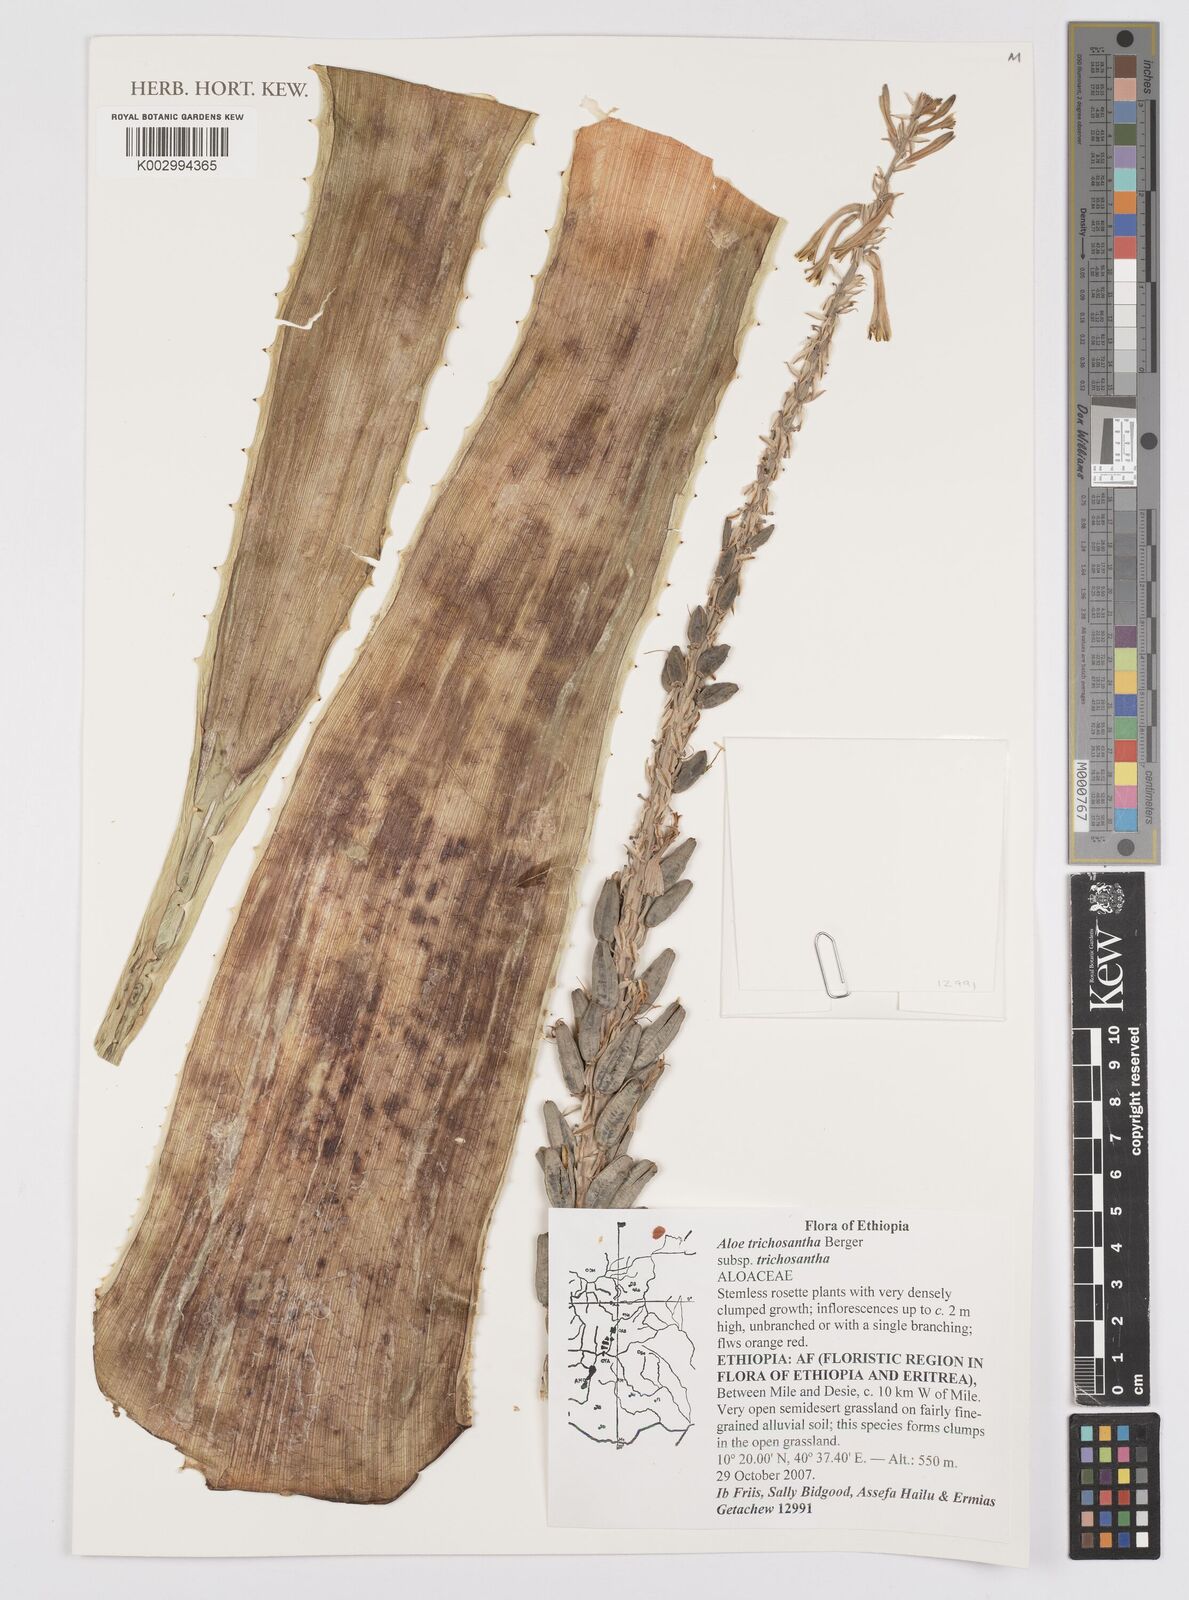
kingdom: Plantae
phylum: Tracheophyta
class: Liliopsida
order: Asparagales
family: Asphodelaceae
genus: Aloe
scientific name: Aloe trichosantha
